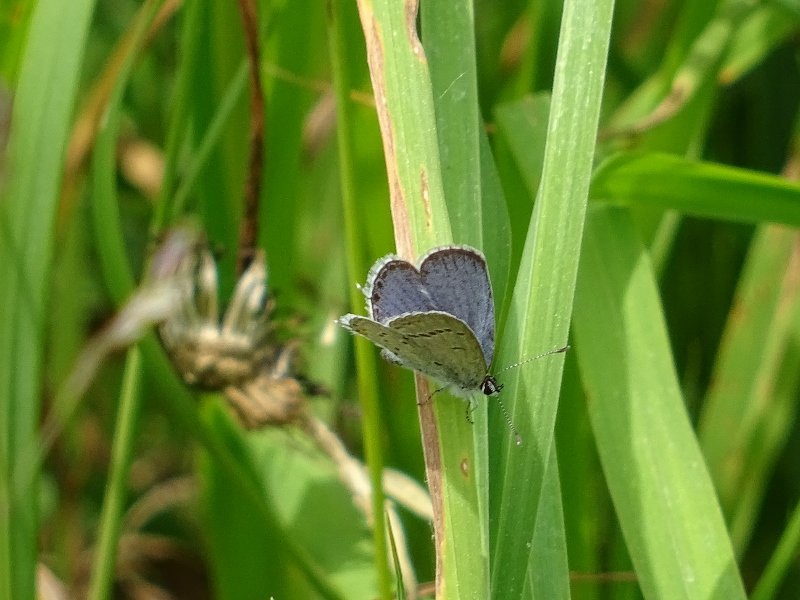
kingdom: Animalia
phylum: Arthropoda
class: Insecta
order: Lepidoptera
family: Lycaenidae
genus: Elkalyce
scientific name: Elkalyce comyntas
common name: Eastern Tailed-Blue
